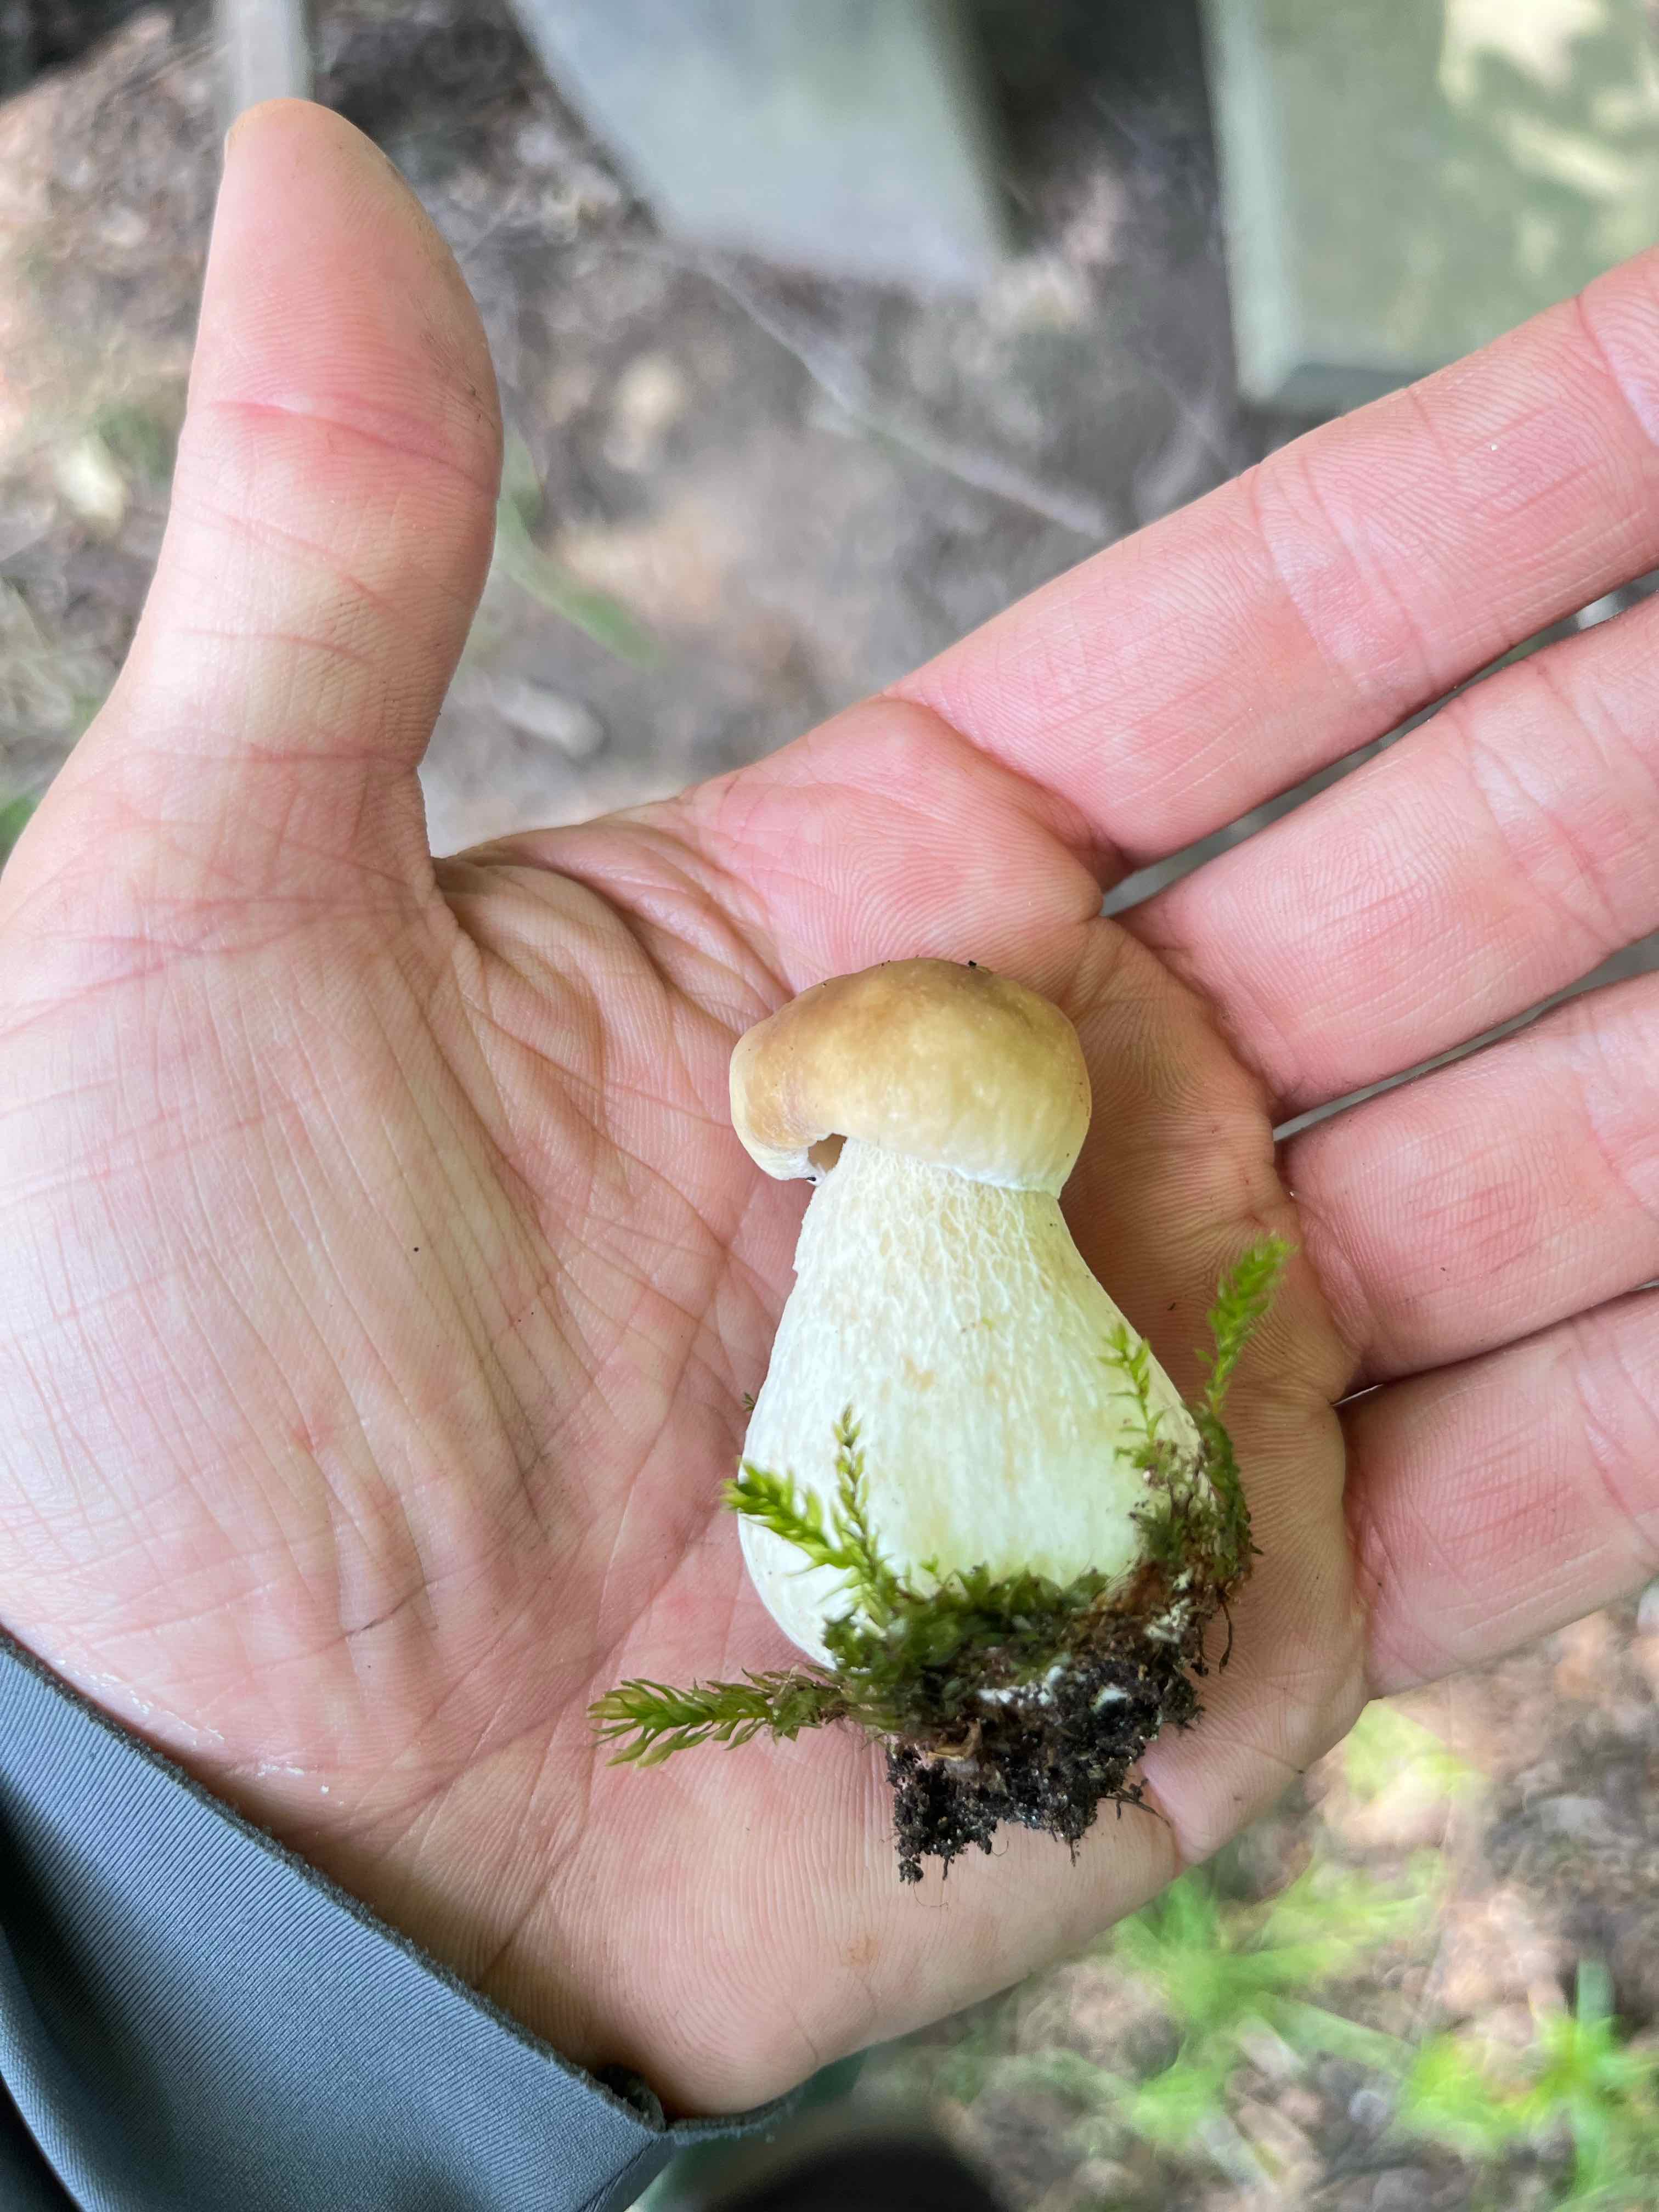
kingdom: Fungi
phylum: Basidiomycota
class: Agaricomycetes
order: Boletales
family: Boletaceae
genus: Boletus
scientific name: Boletus edulis
